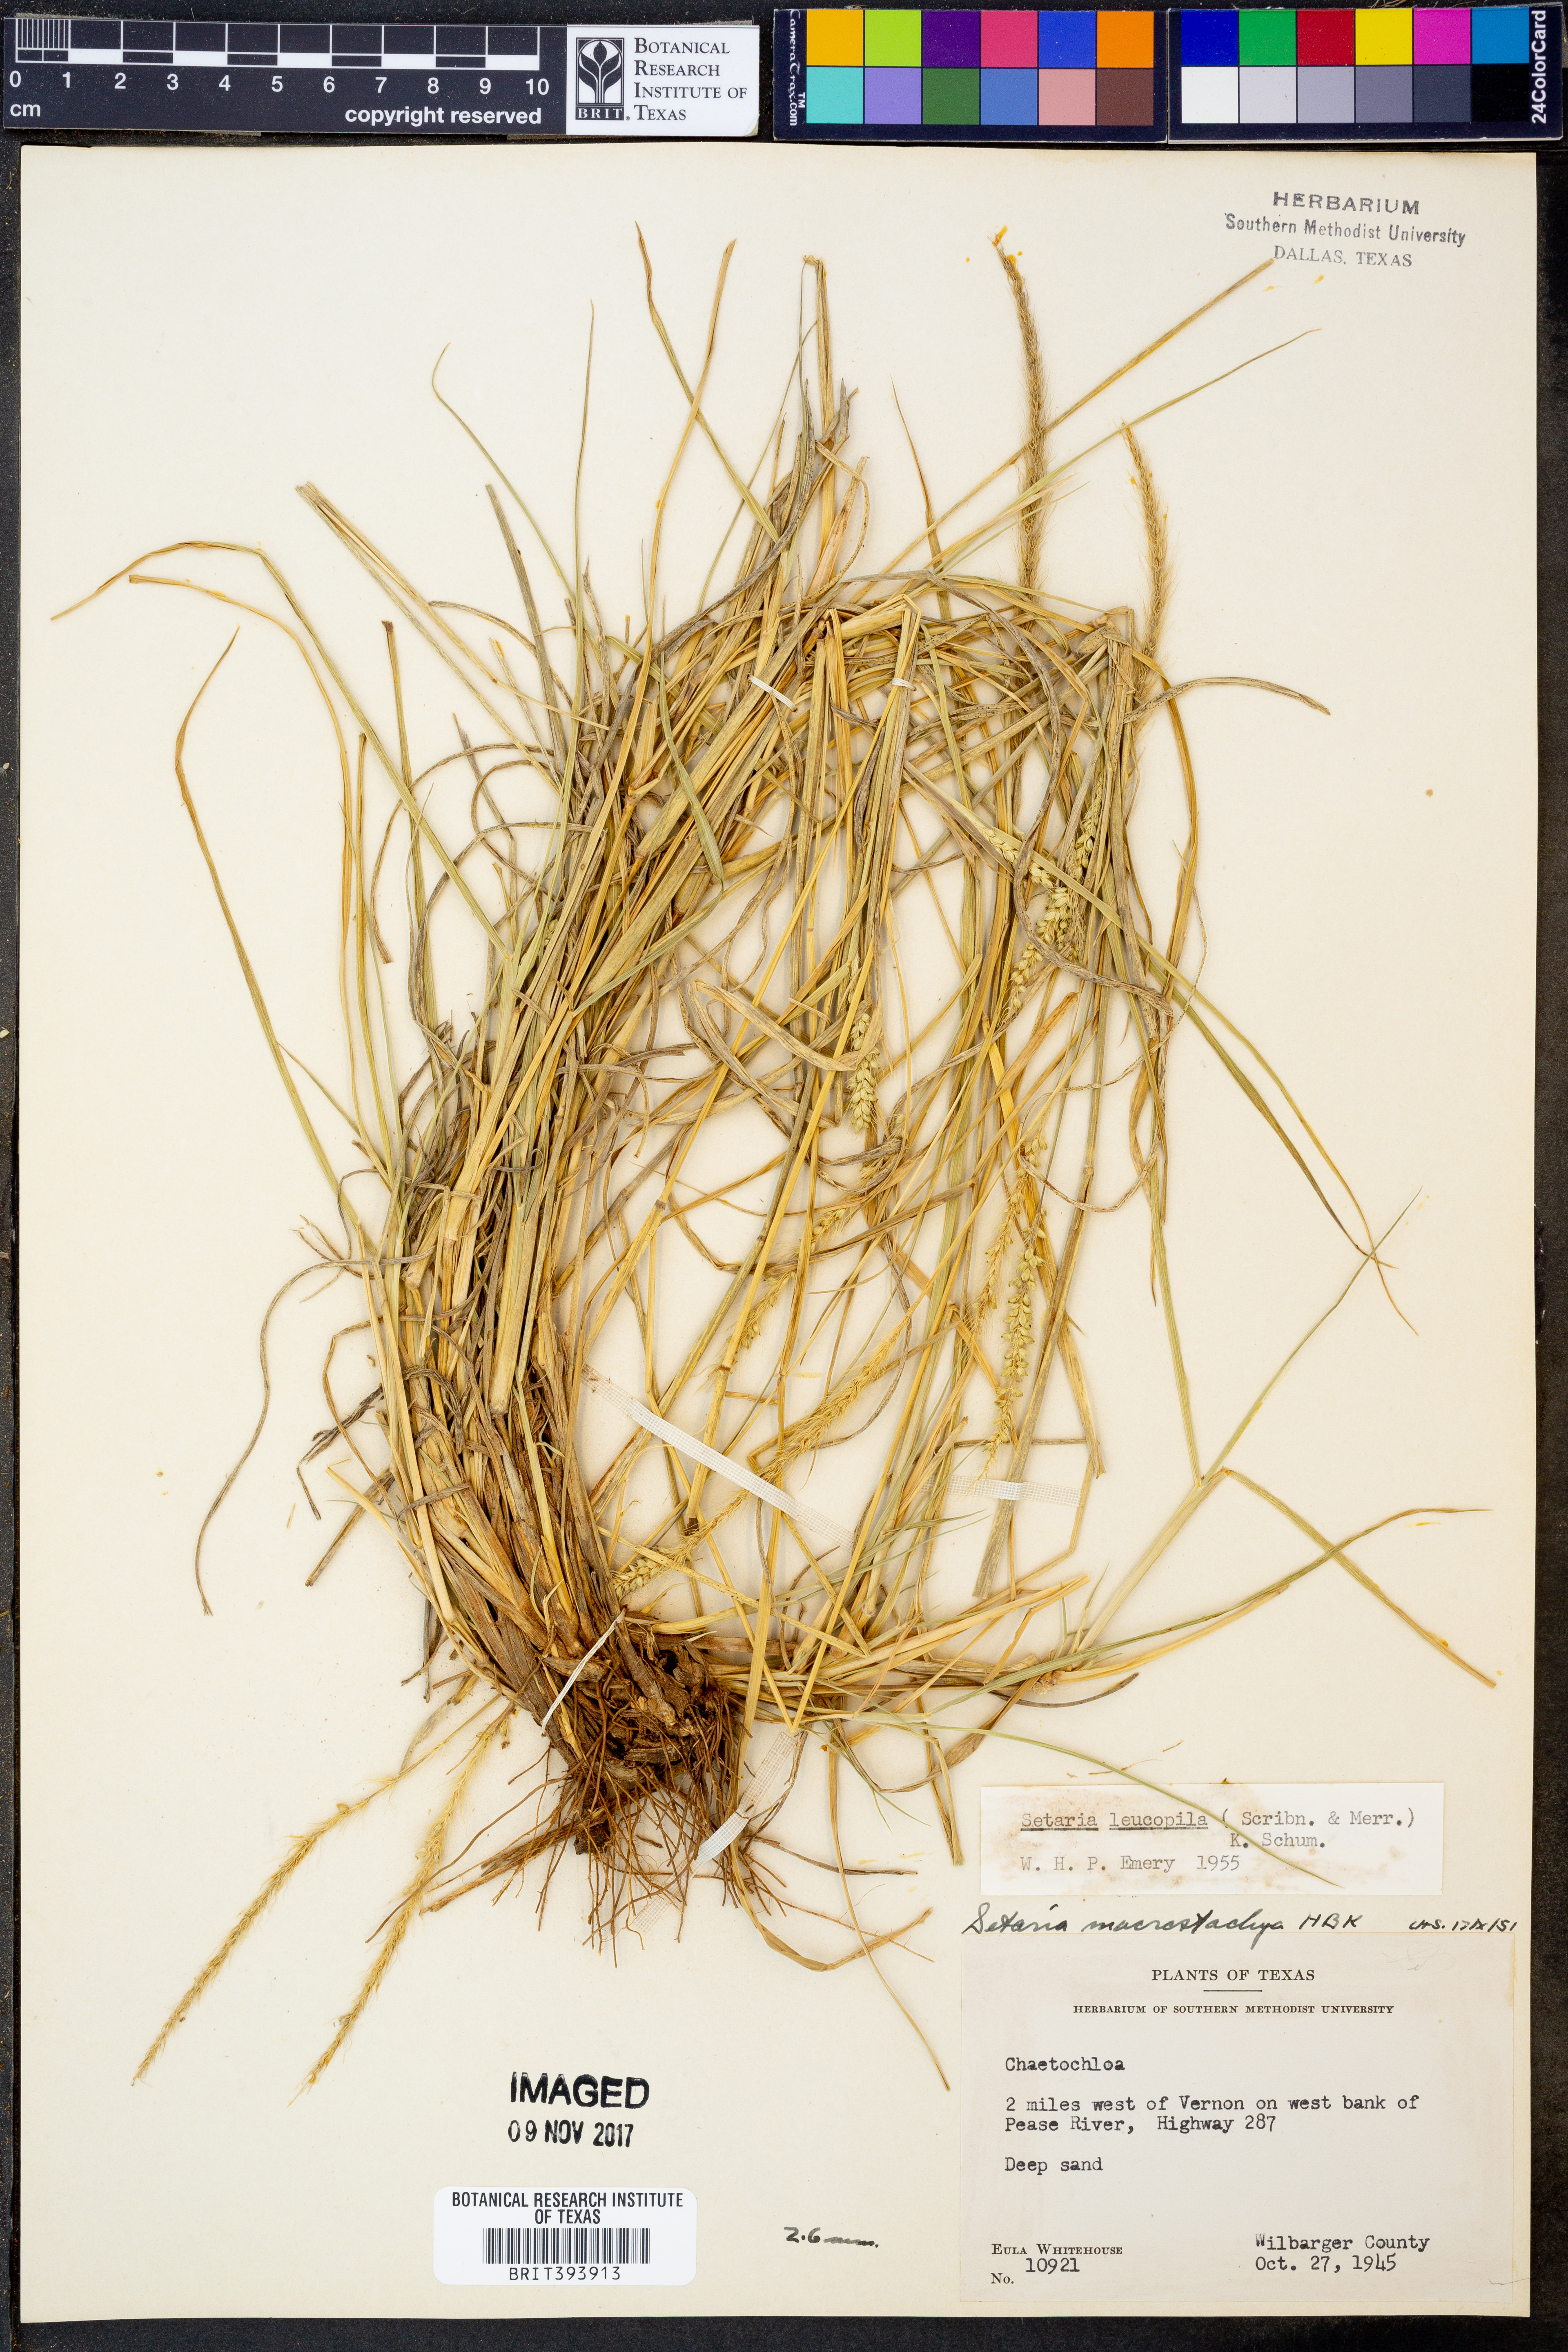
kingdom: Plantae
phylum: Tracheophyta
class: Liliopsida
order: Poales
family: Poaceae
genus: Setaria
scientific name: Setaria leucopila
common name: Plains bristle grass
